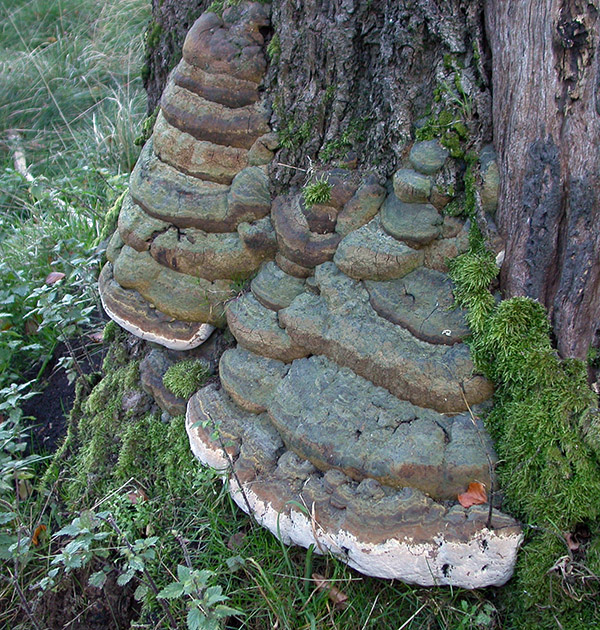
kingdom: Fungi
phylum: Basidiomycota
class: Agaricomycetes
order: Polyporales
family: Polyporaceae
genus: Ganoderma
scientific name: Ganoderma pfeifferi
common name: kobberrød lakporesvamp
